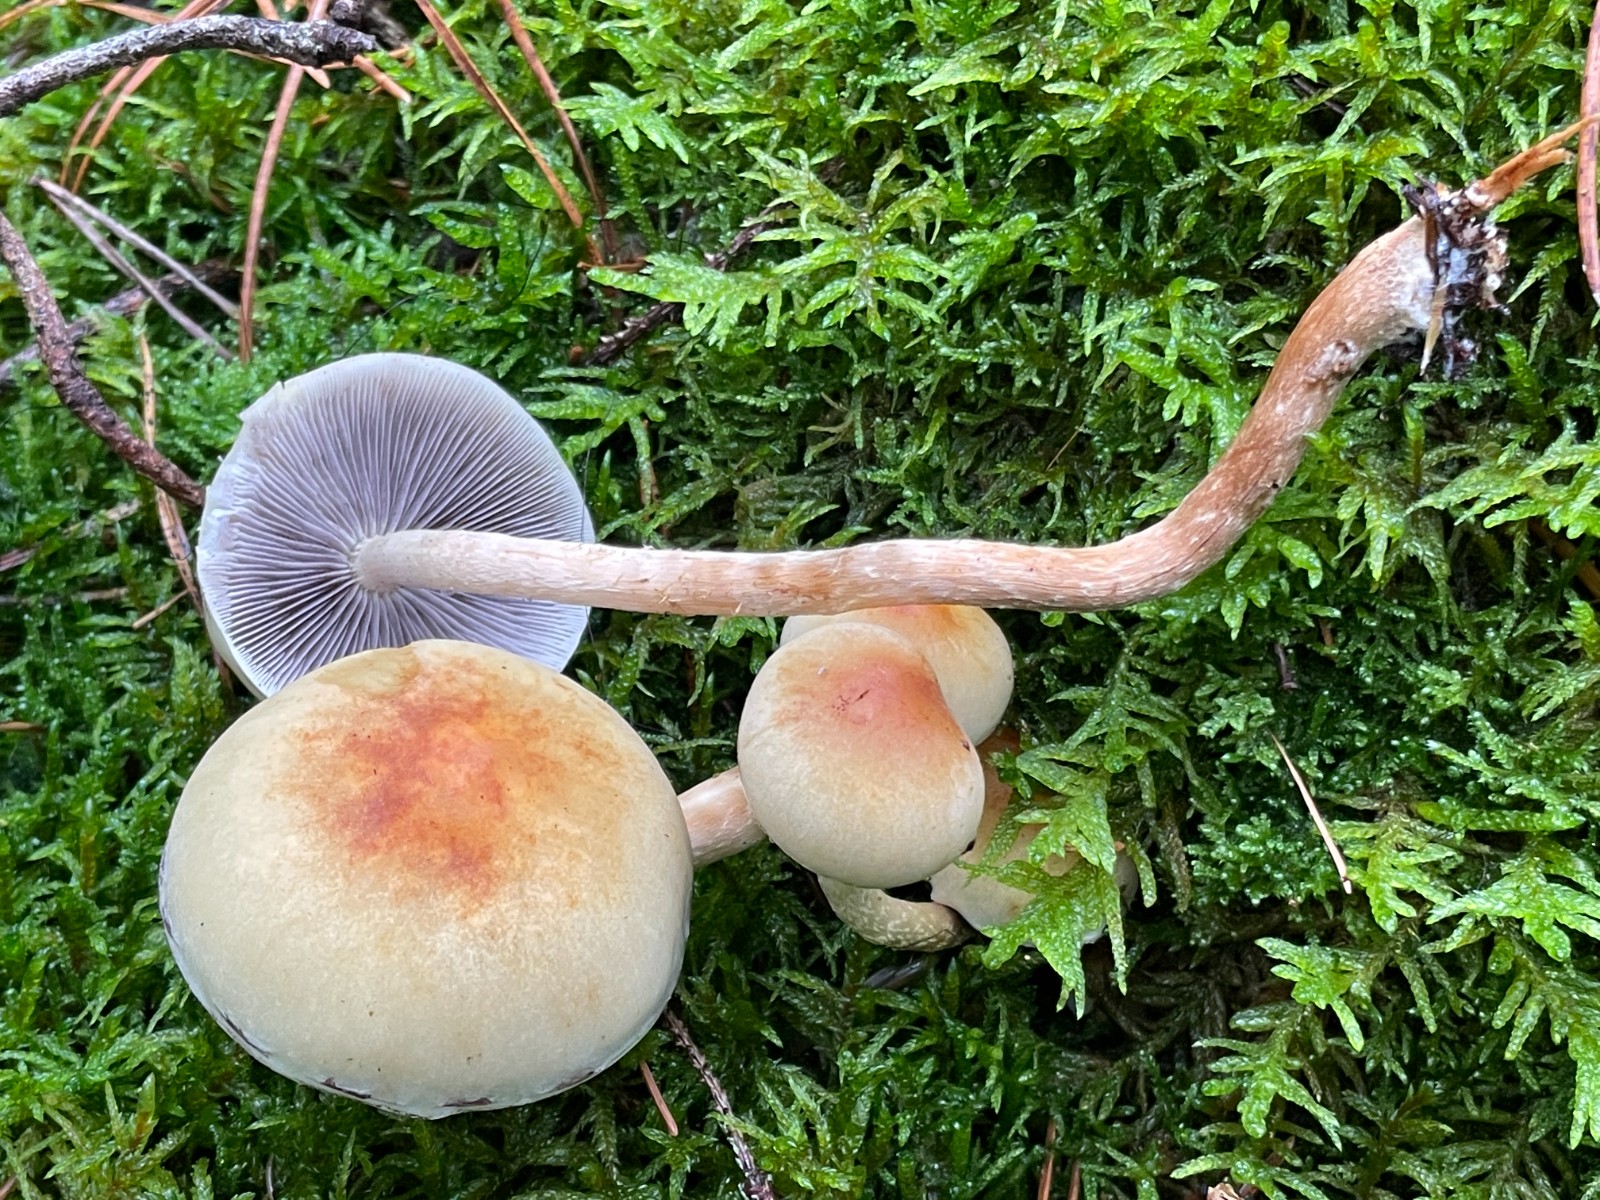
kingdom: Fungi
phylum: Basidiomycota
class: Agaricomycetes
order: Agaricales
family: Strophariaceae
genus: Hypholoma
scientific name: Hypholoma capnoides
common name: gran-svovlhat
